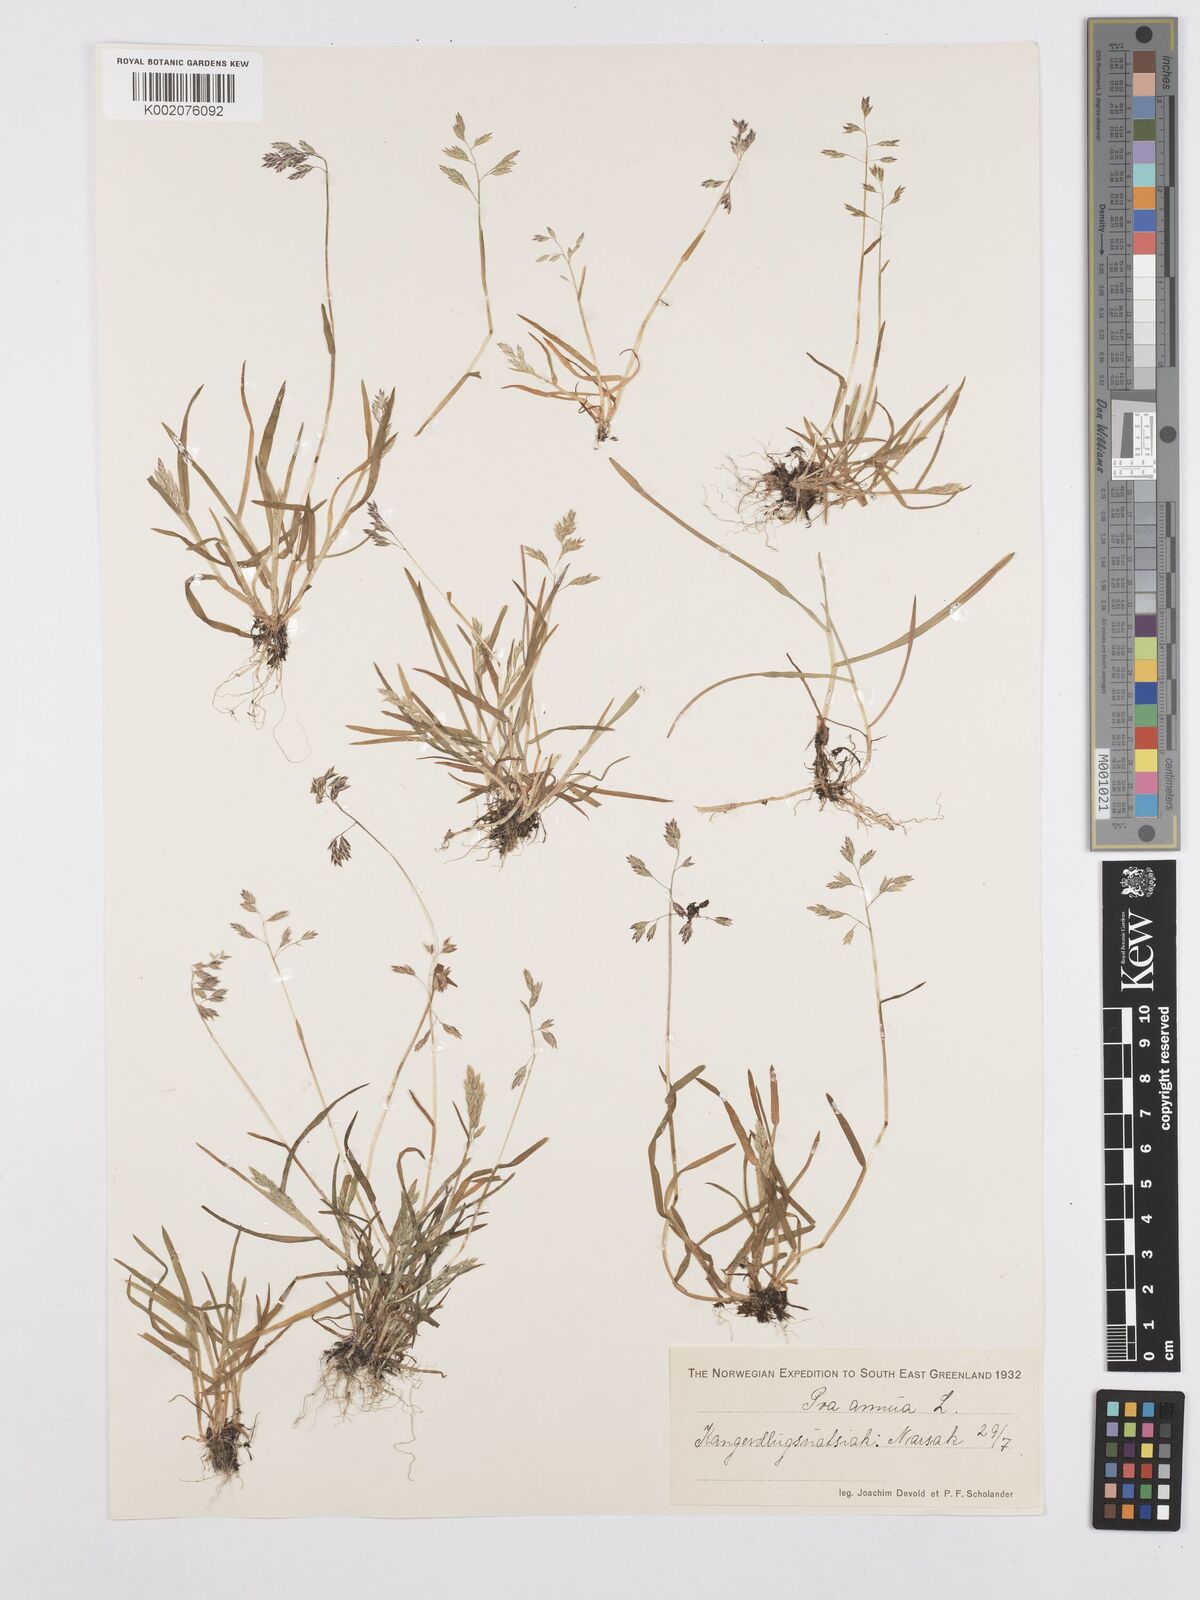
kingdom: Plantae
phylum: Tracheophyta
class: Liliopsida
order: Poales
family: Poaceae
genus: Poa
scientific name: Poa annua
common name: Annual bluegrass
